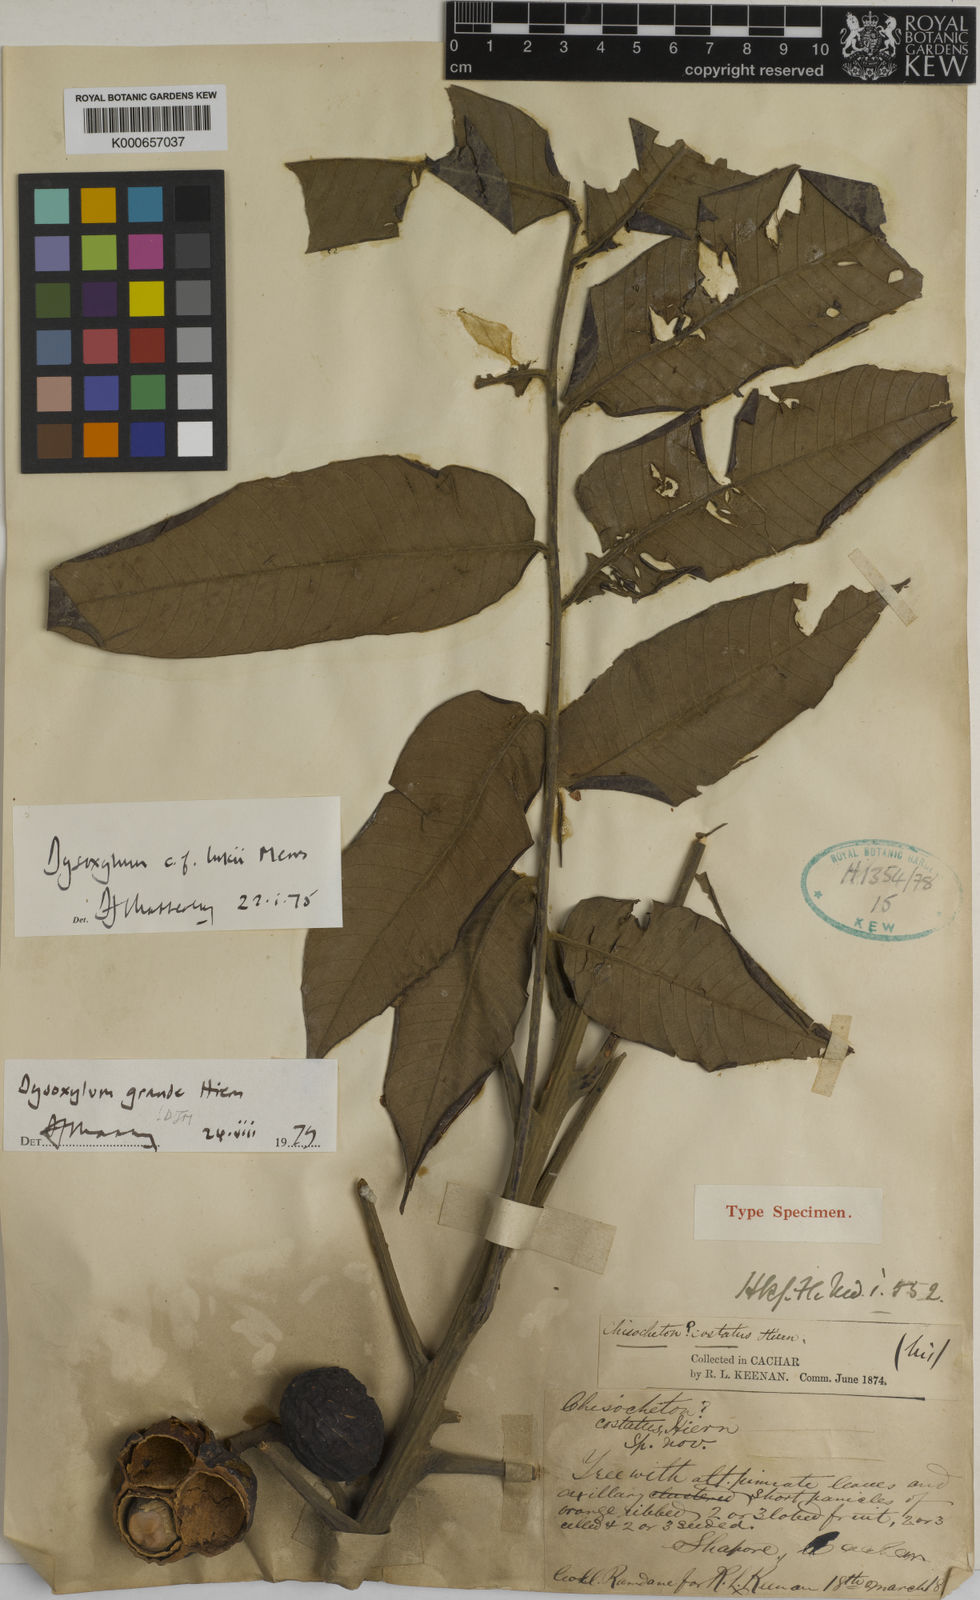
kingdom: Plantae
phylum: Tracheophyta
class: Magnoliopsida
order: Sapindales
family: Meliaceae
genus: Dysoxylum
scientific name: Dysoxylum grande
